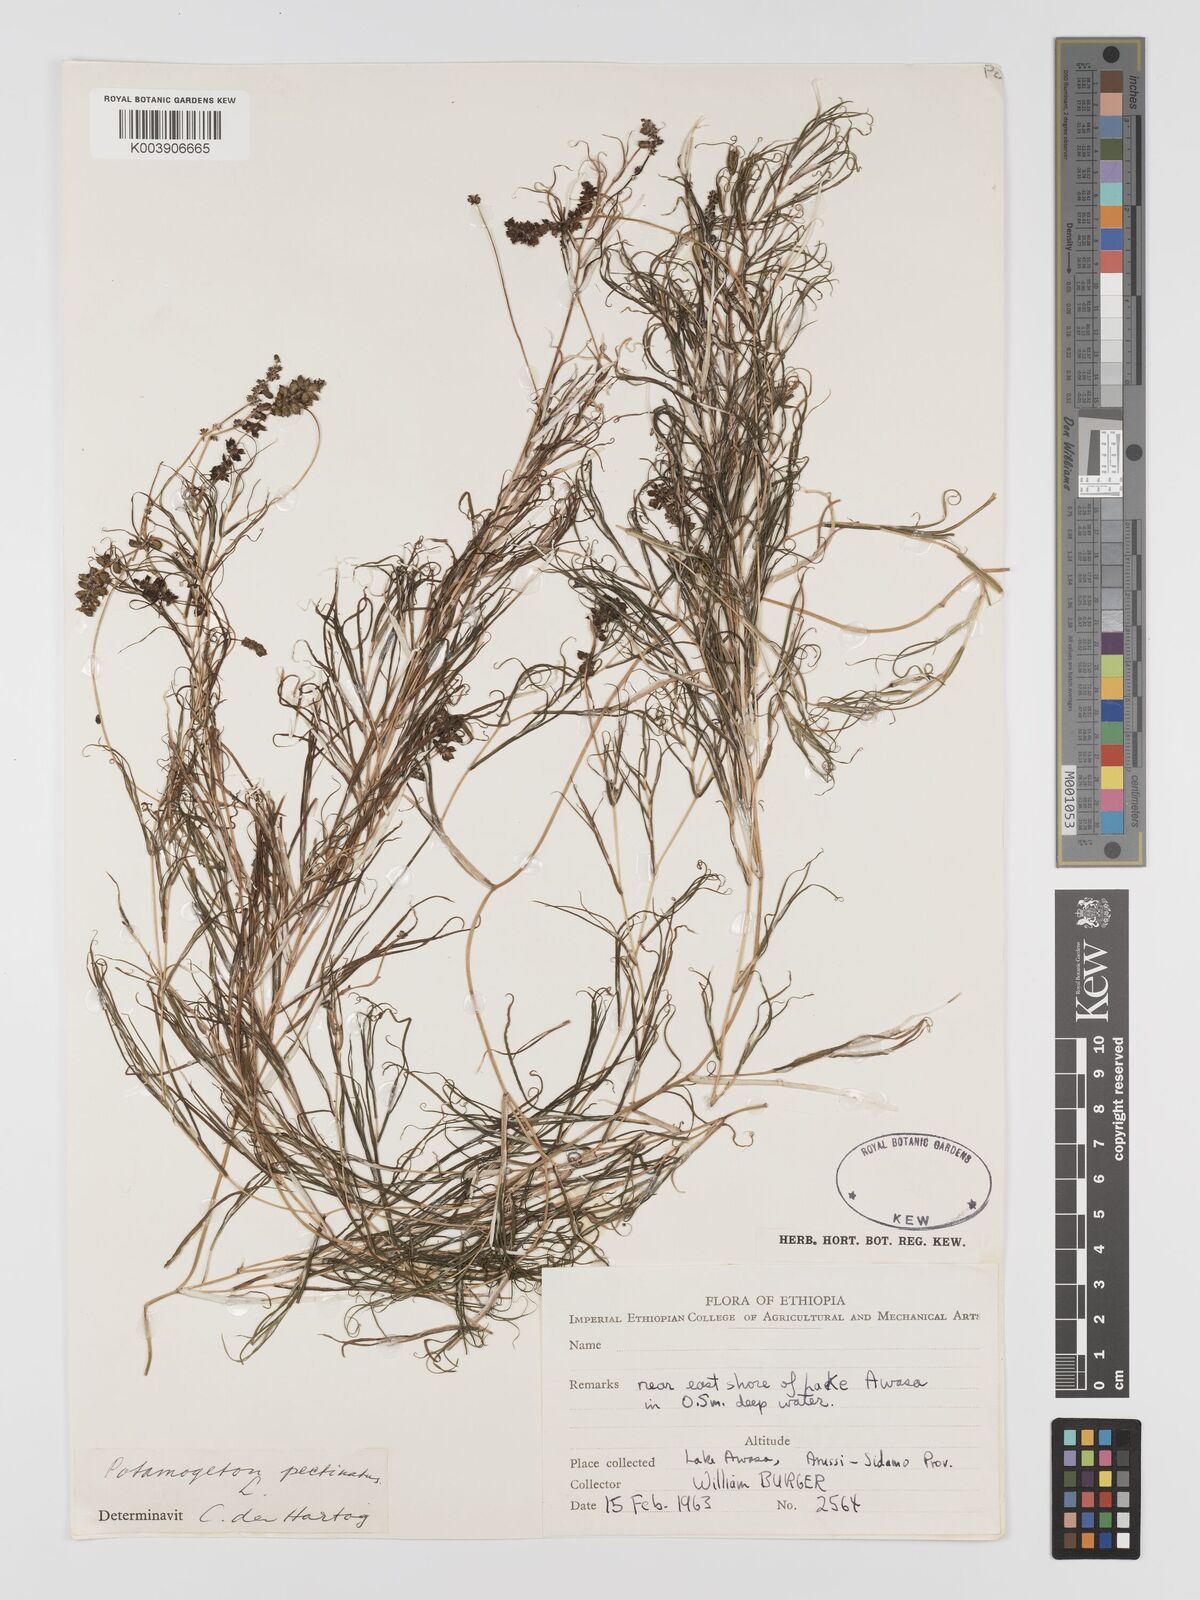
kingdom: Plantae
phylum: Tracheophyta
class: Liliopsida
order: Alismatales
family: Potamogetonaceae
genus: Stuckenia
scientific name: Stuckenia pectinata
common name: Sago pondweed
